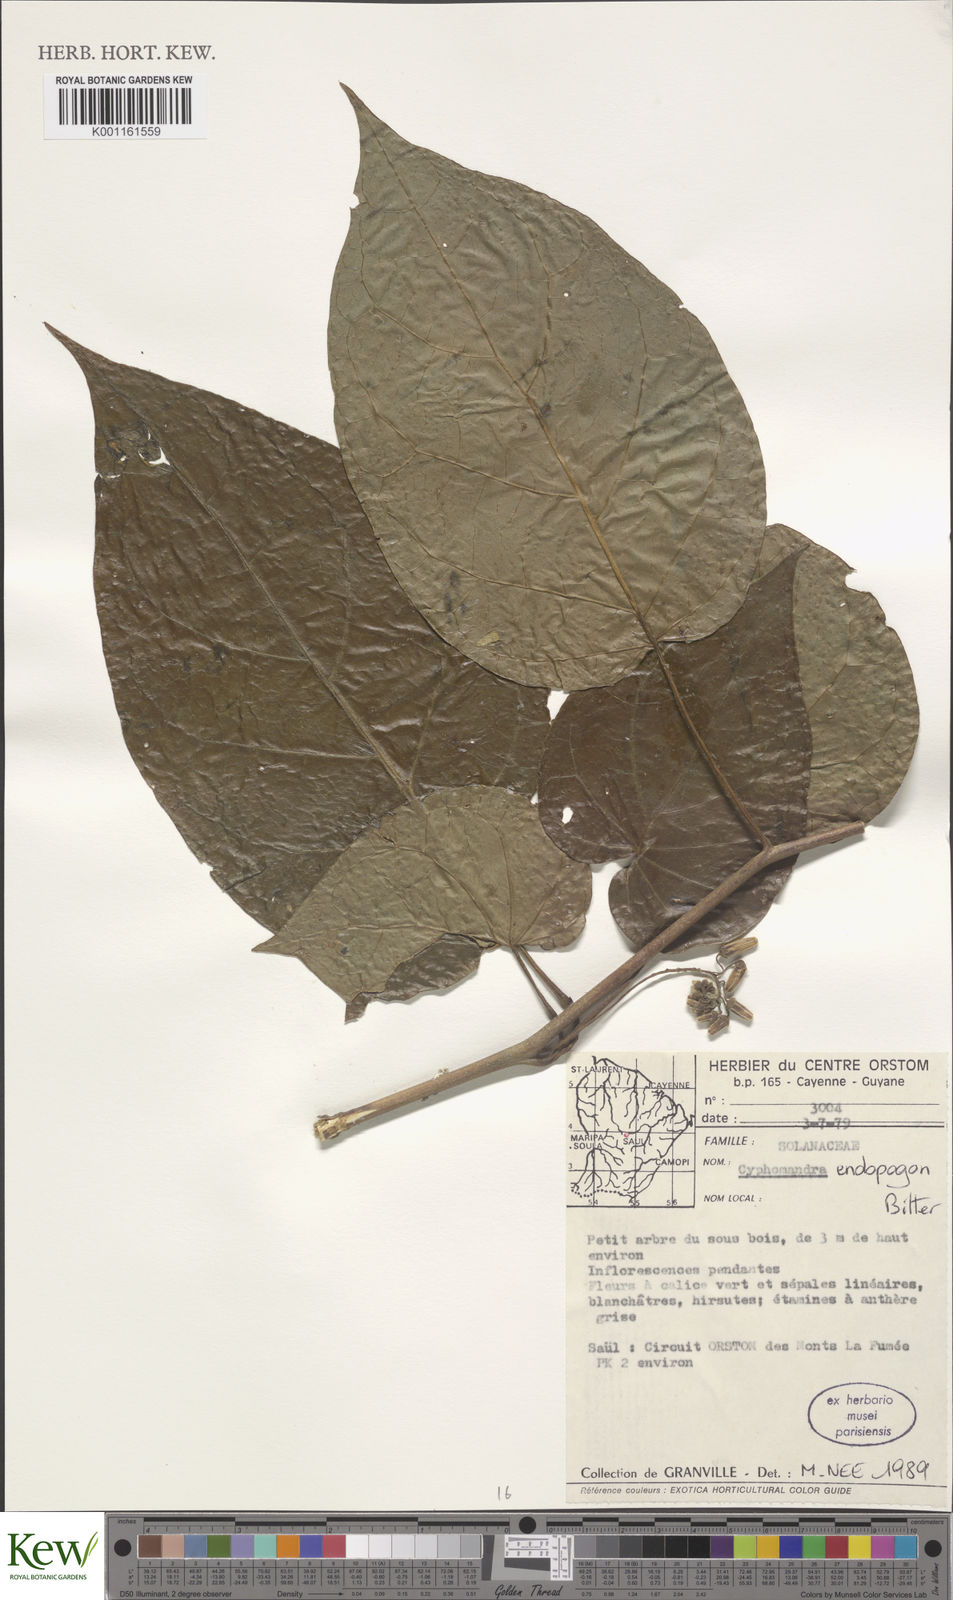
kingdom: Plantae
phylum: Tracheophyta
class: Magnoliopsida
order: Solanales
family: Solanaceae
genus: Solanum
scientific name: Solanum endopogon
